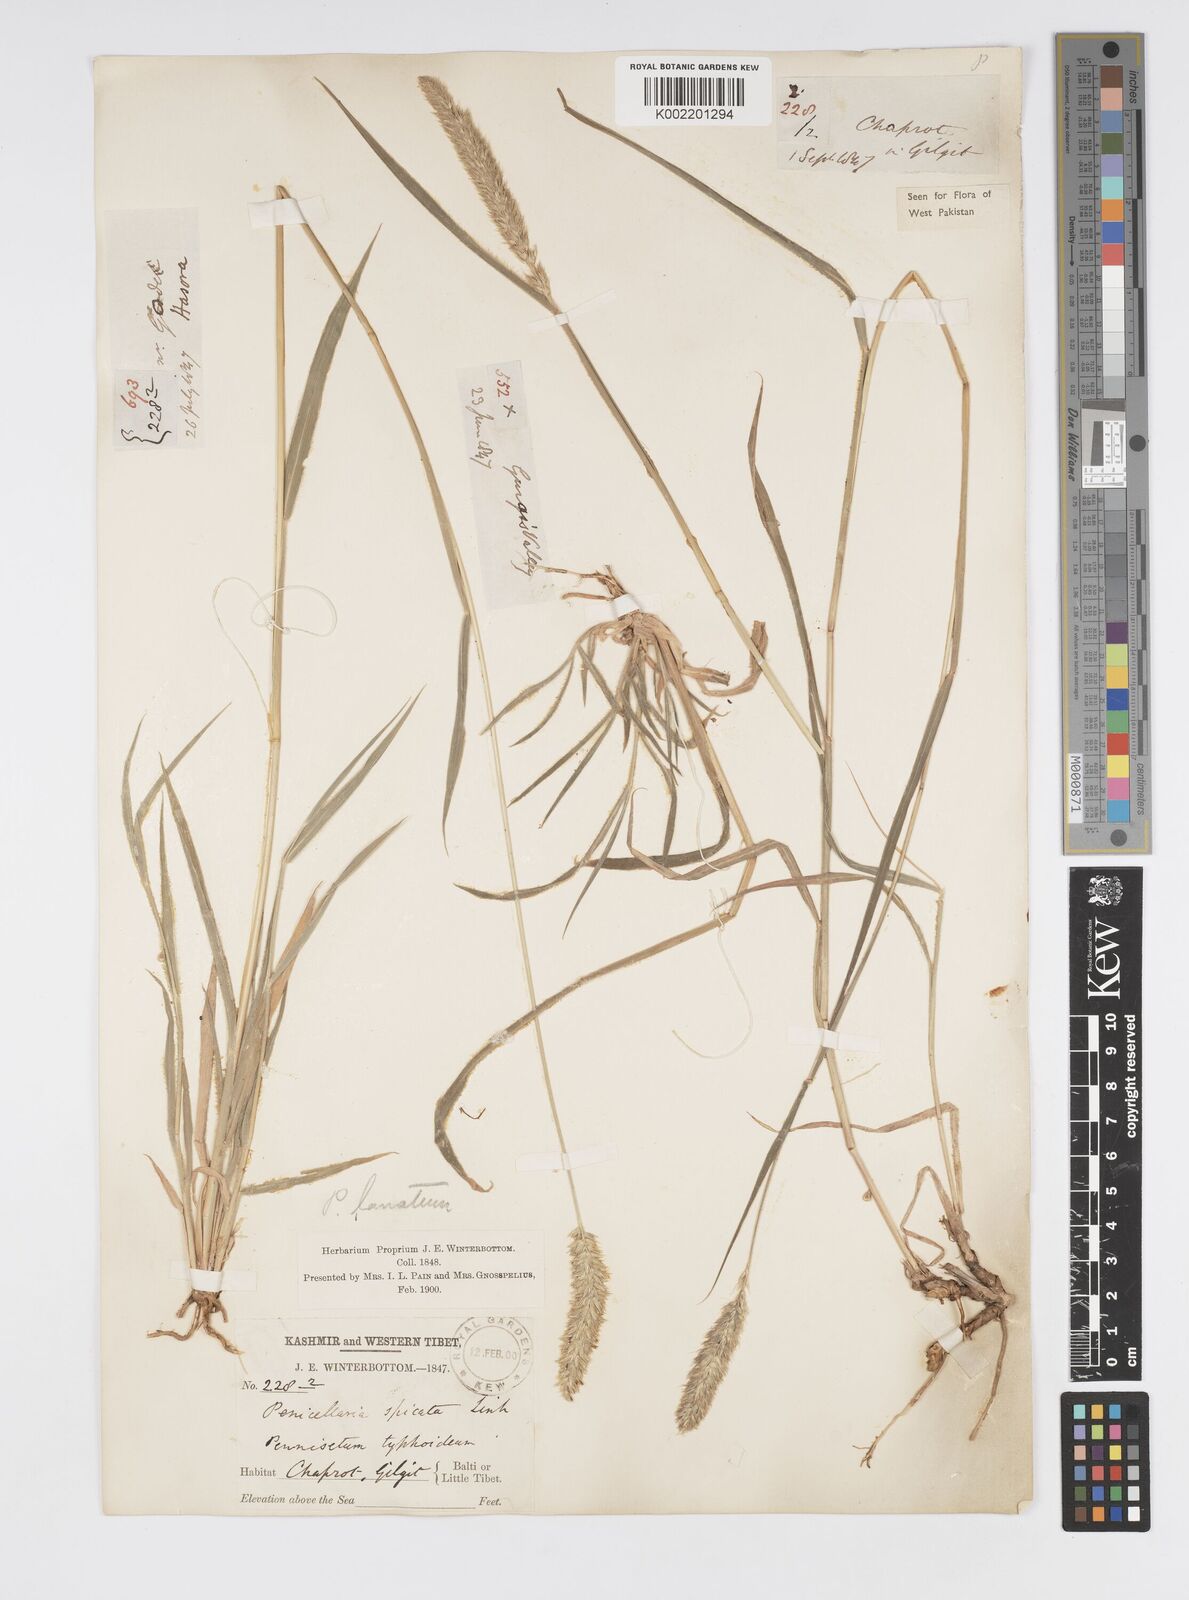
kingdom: Plantae
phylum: Tracheophyta
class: Liliopsida
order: Poales
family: Poaceae
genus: Cenchrus
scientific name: Cenchrus lanatus
